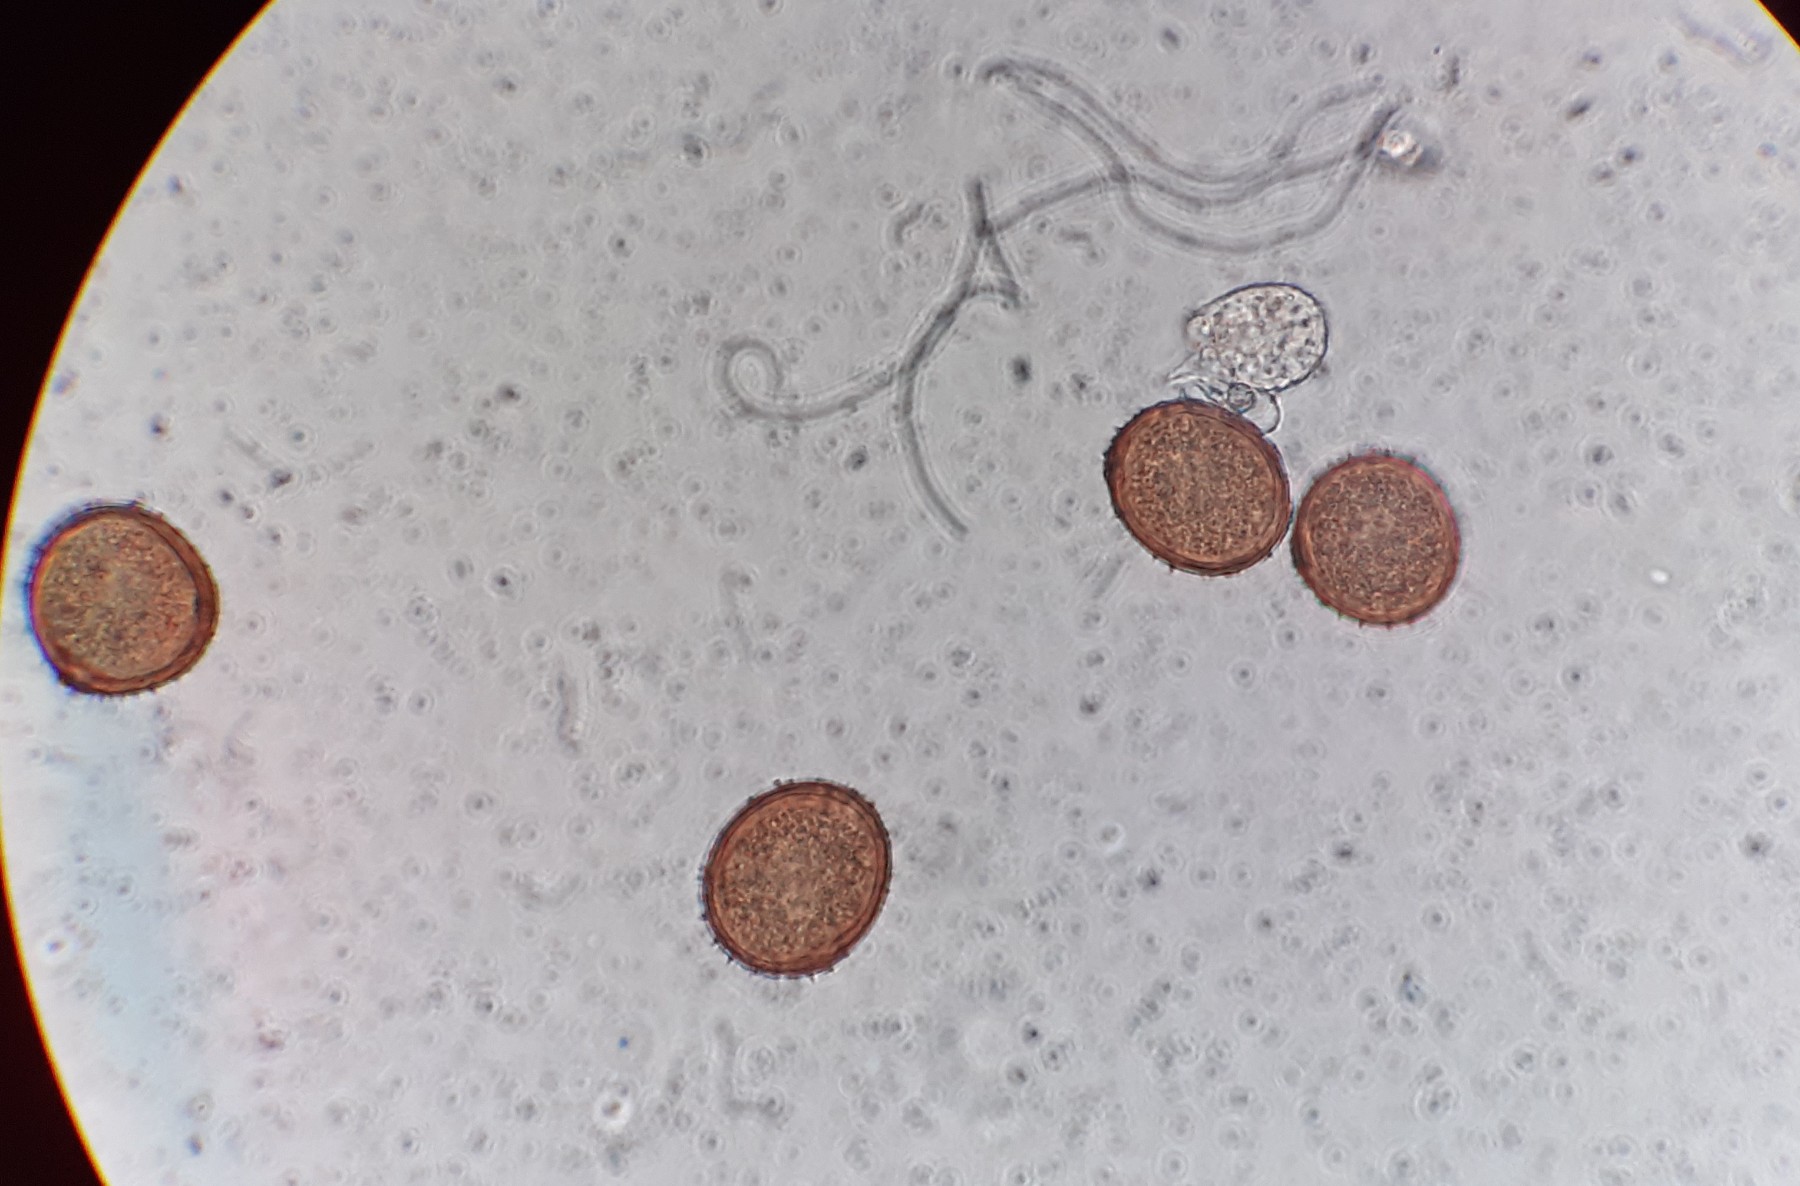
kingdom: Fungi
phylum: Basidiomycota
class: Pucciniomycetes
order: Pucciniales
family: Pucciniaceae
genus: Uromyces
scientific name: Uromyces acetosae
